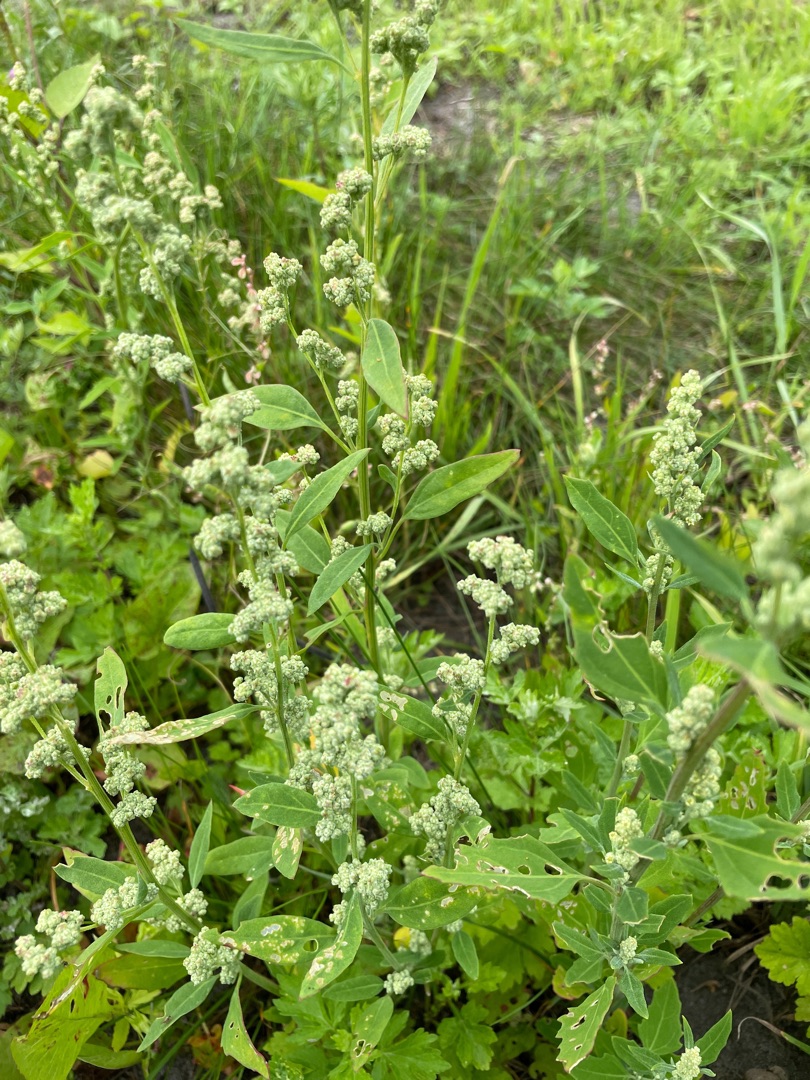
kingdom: Plantae
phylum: Tracheophyta
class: Magnoliopsida
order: Caryophyllales
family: Amaranthaceae
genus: Chenopodium
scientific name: Chenopodium album
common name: Hvidmelet gåsefod
